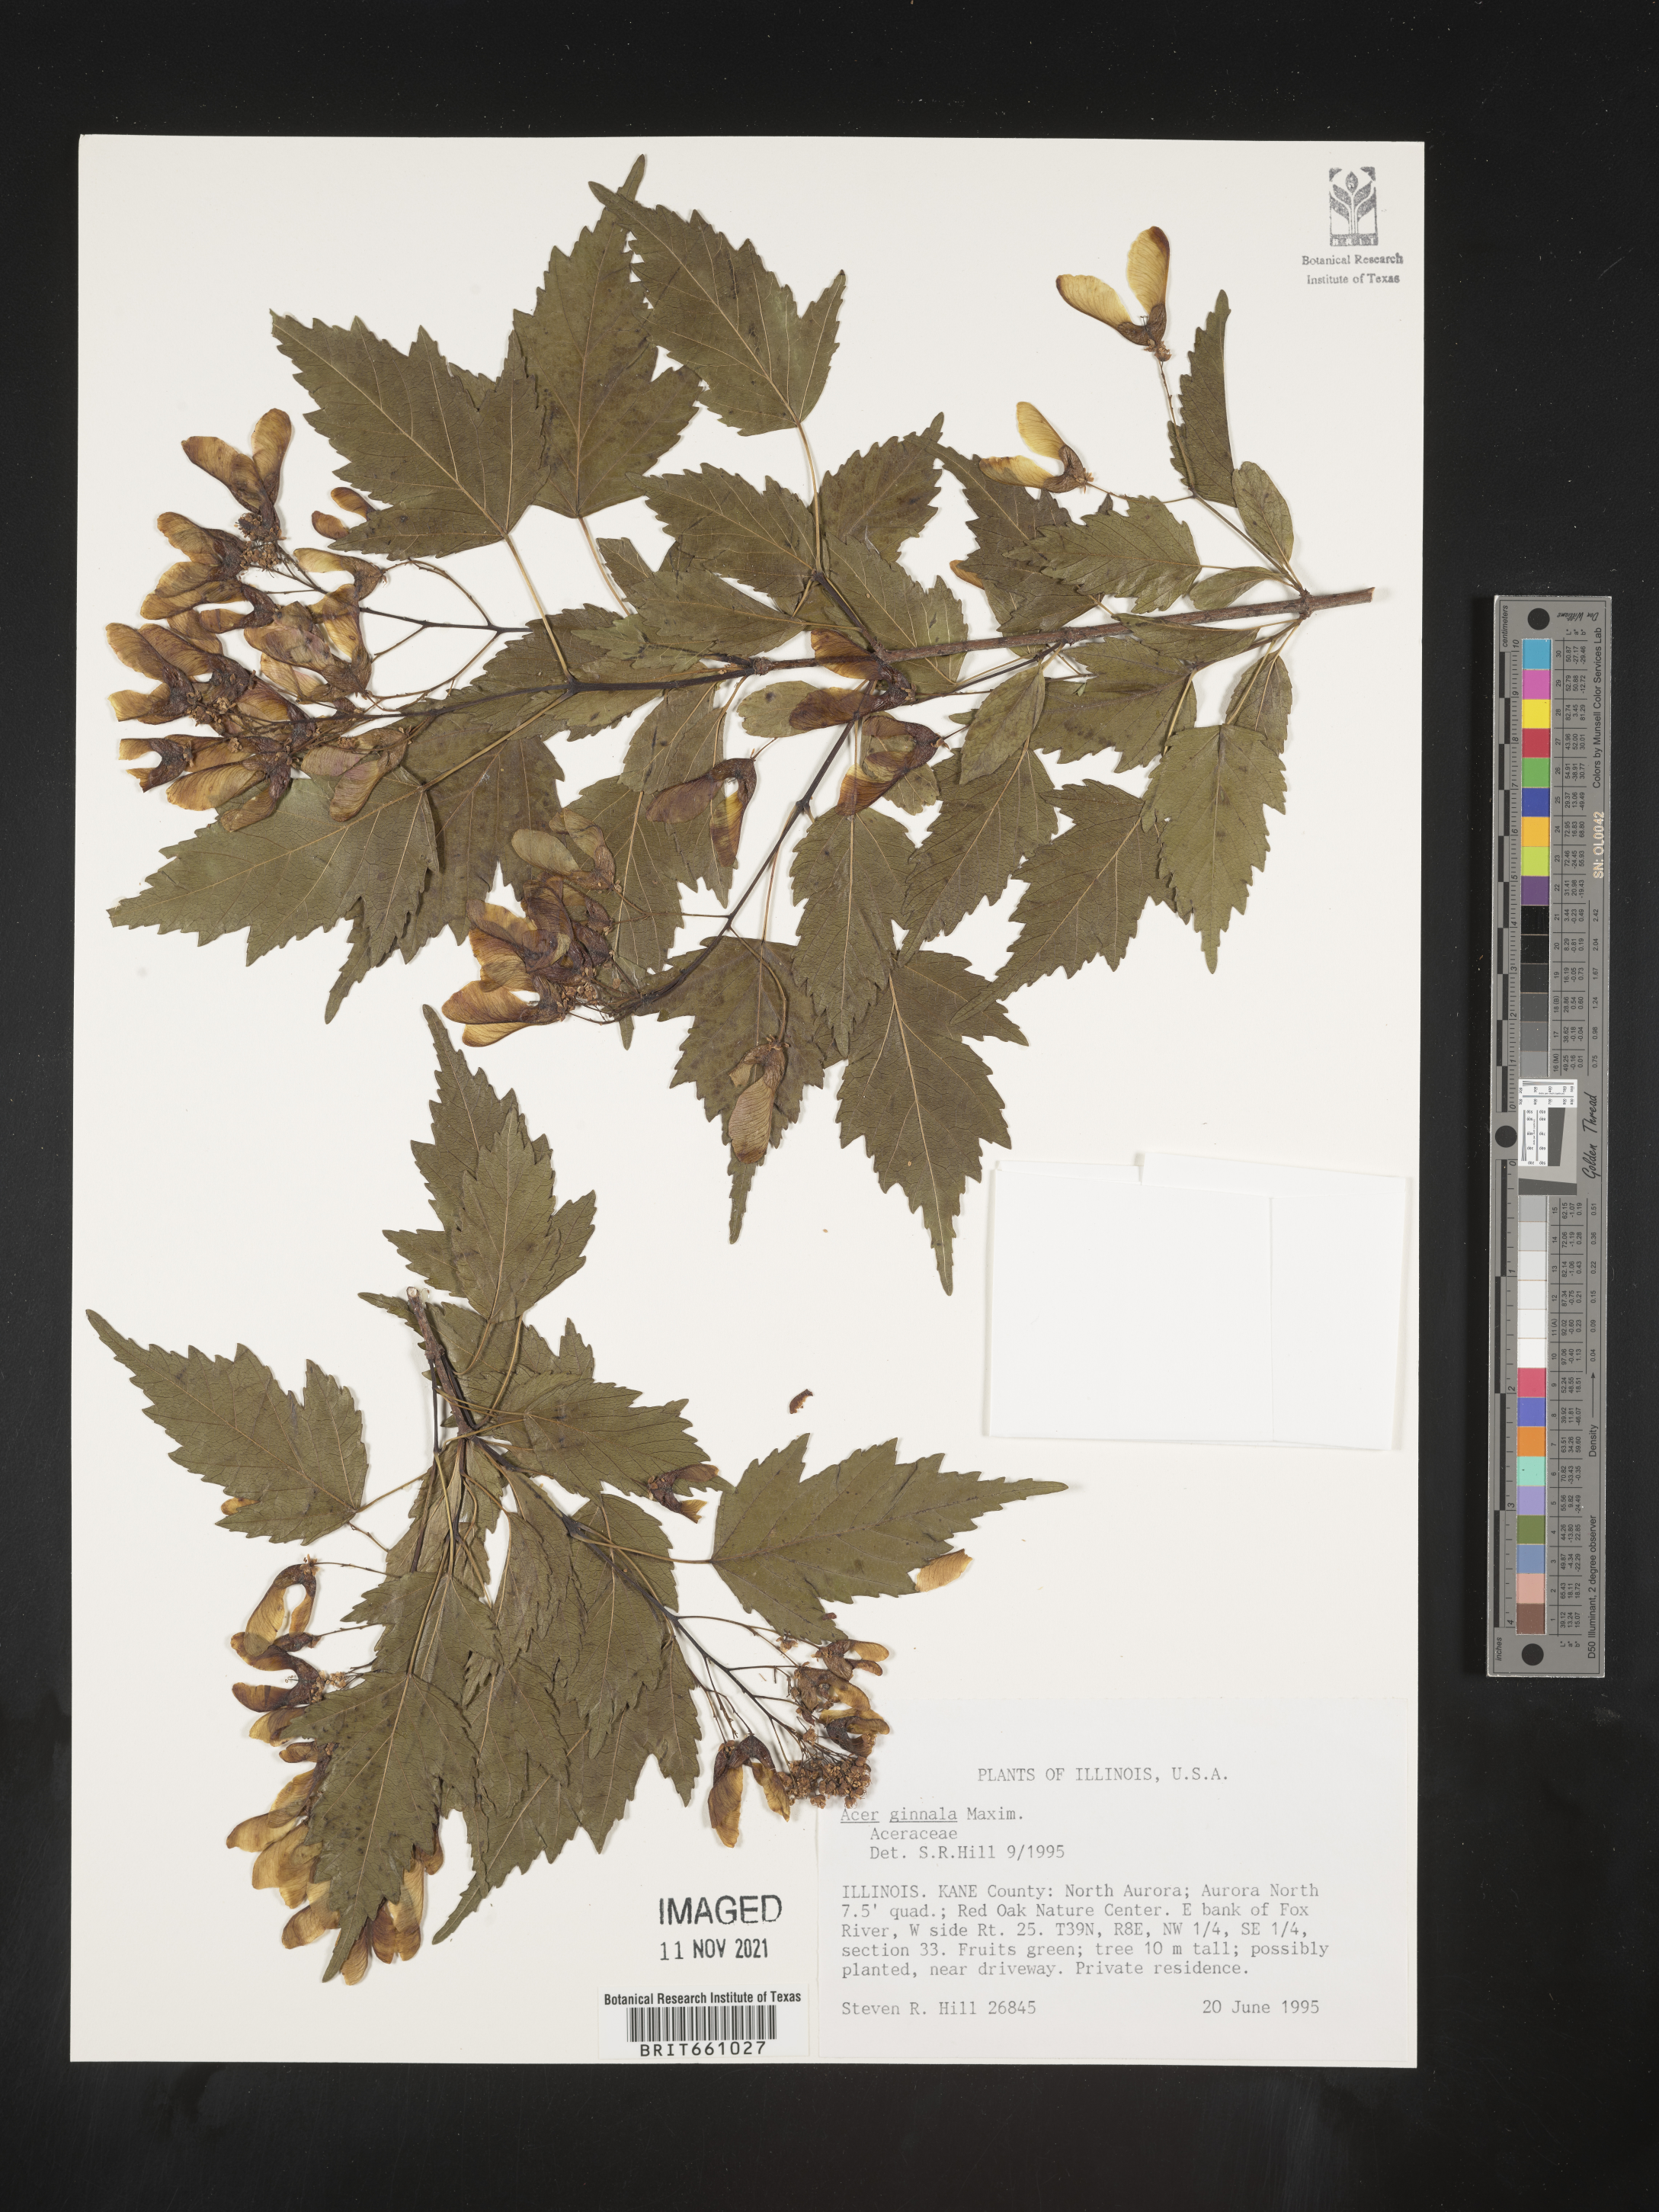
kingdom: Plantae
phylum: Tracheophyta
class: Magnoliopsida
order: Sapindales
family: Sapindaceae
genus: Acer
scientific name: Acer
